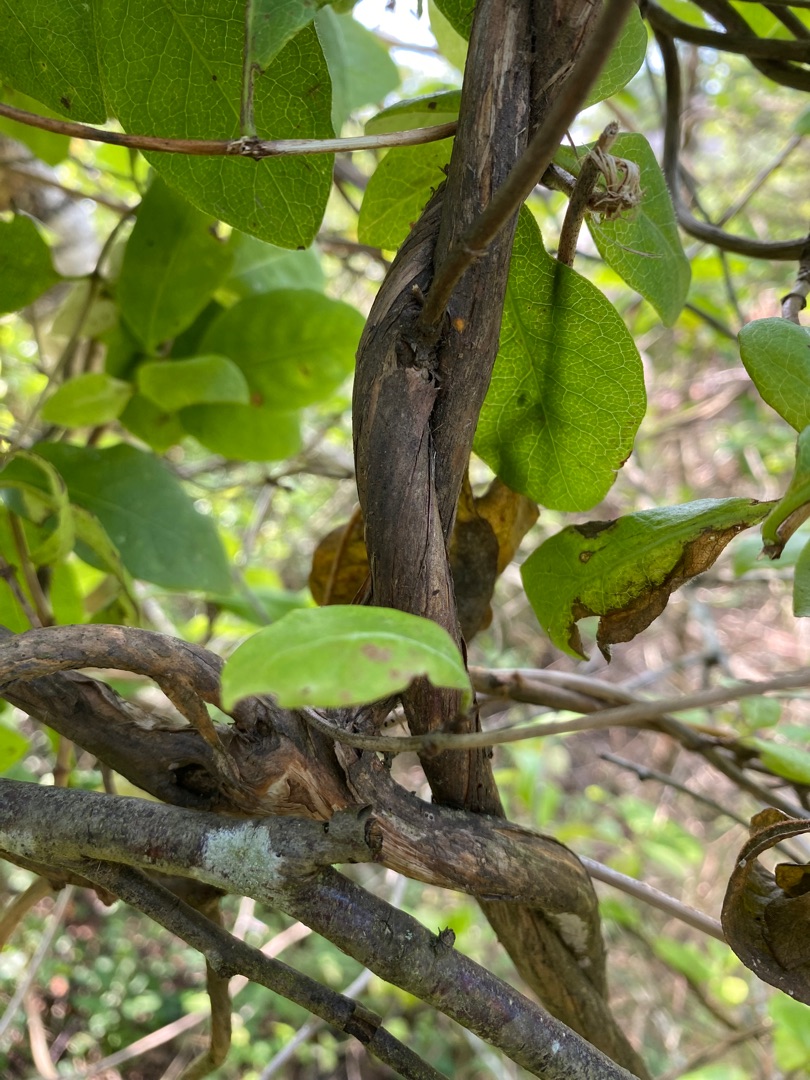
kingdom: Plantae
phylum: Tracheophyta
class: Magnoliopsida
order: Dipsacales
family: Caprifoliaceae
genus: Lonicera
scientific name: Lonicera periclymenum
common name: Almindelig gedeblad
